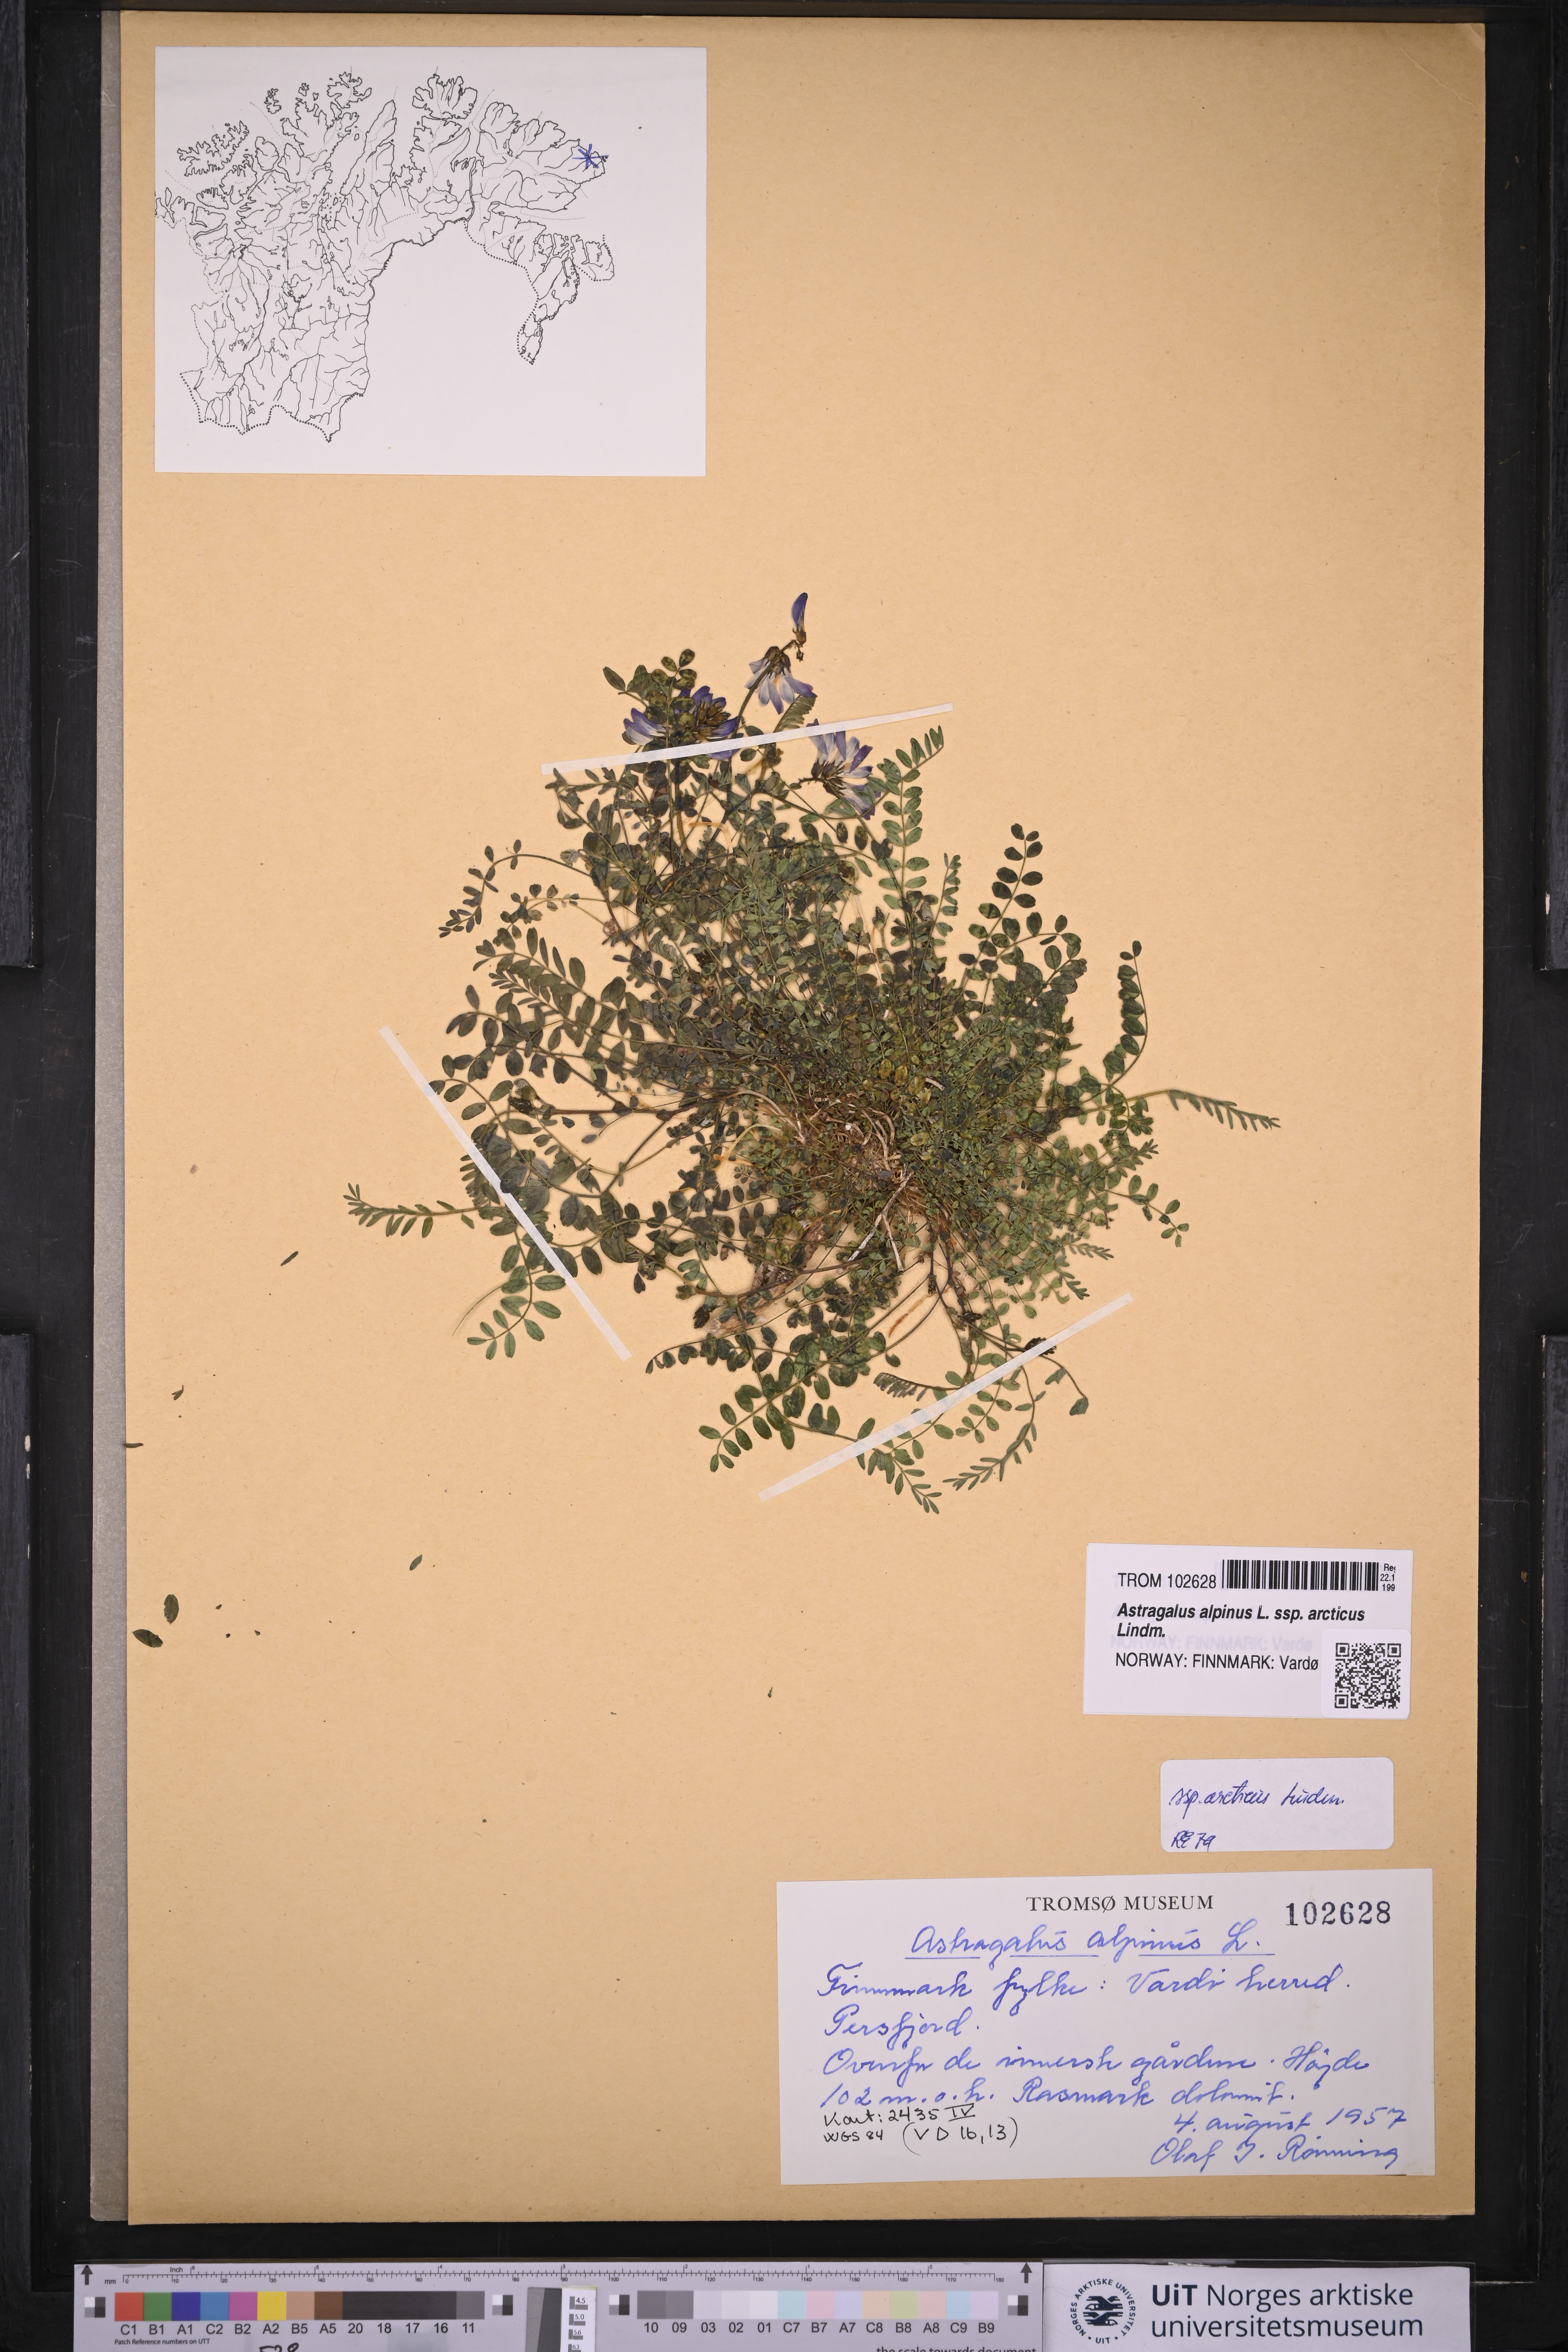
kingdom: Plantae
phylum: Tracheophyta
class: Magnoliopsida
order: Fabales
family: Fabaceae
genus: Astragalus
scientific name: Astragalus norvegicus
